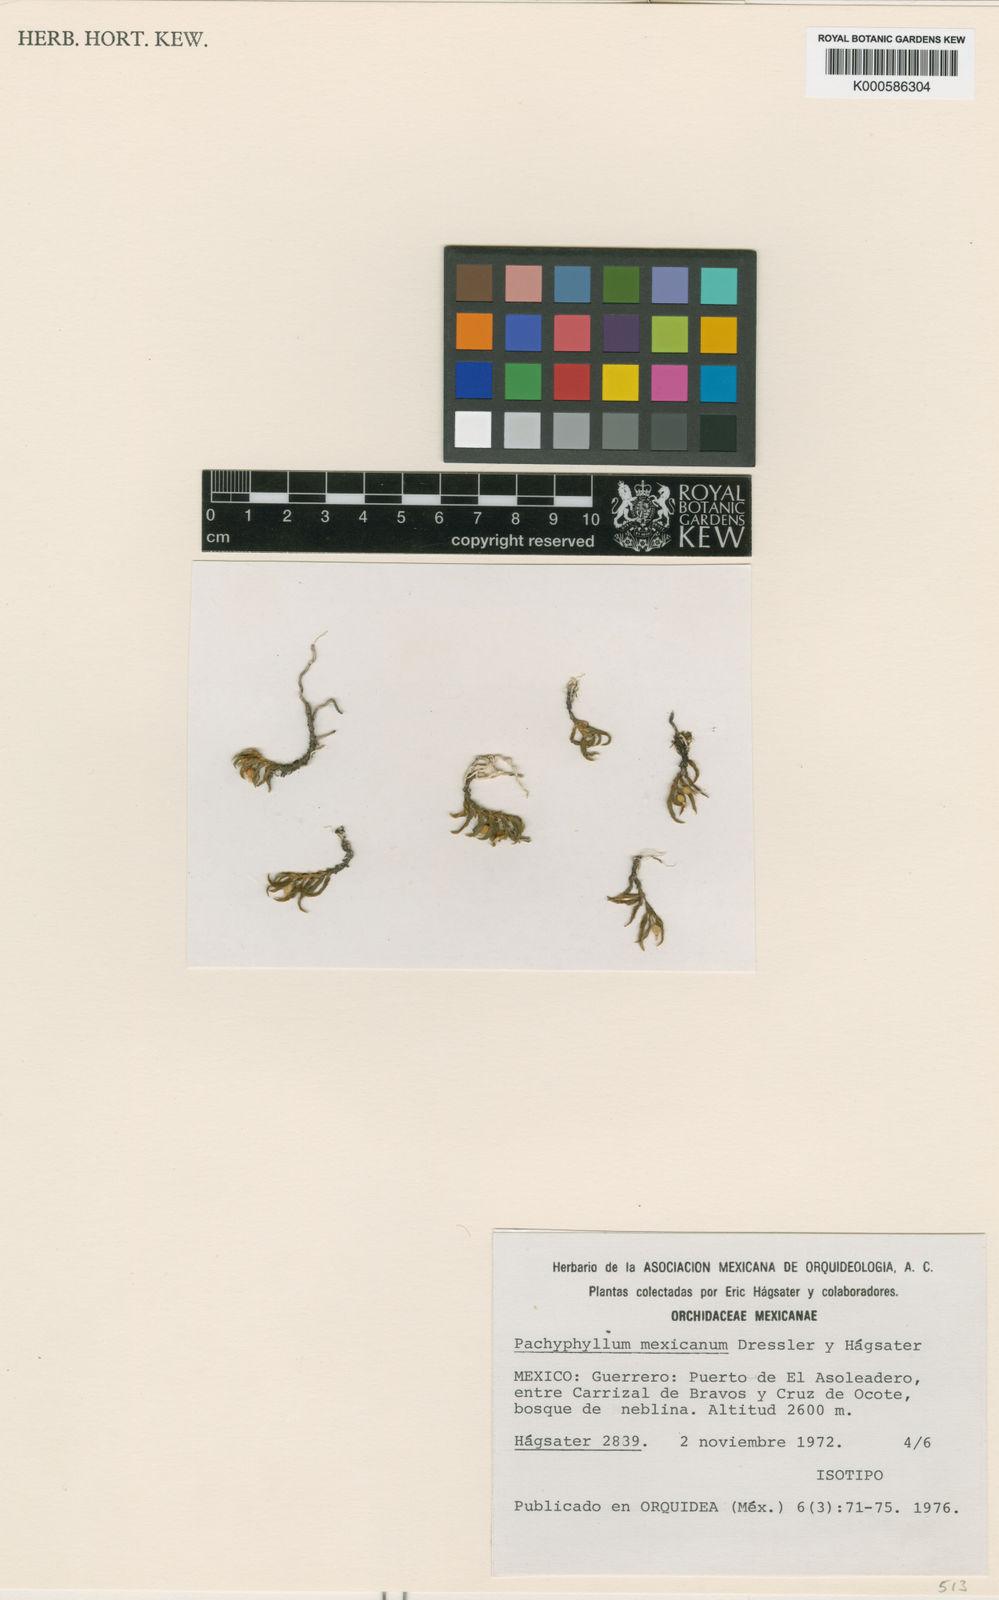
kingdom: Plantae
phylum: Tracheophyta
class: Liliopsida
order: Asparagales
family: Orchidaceae
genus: Fernandezia
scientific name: Fernandezia
